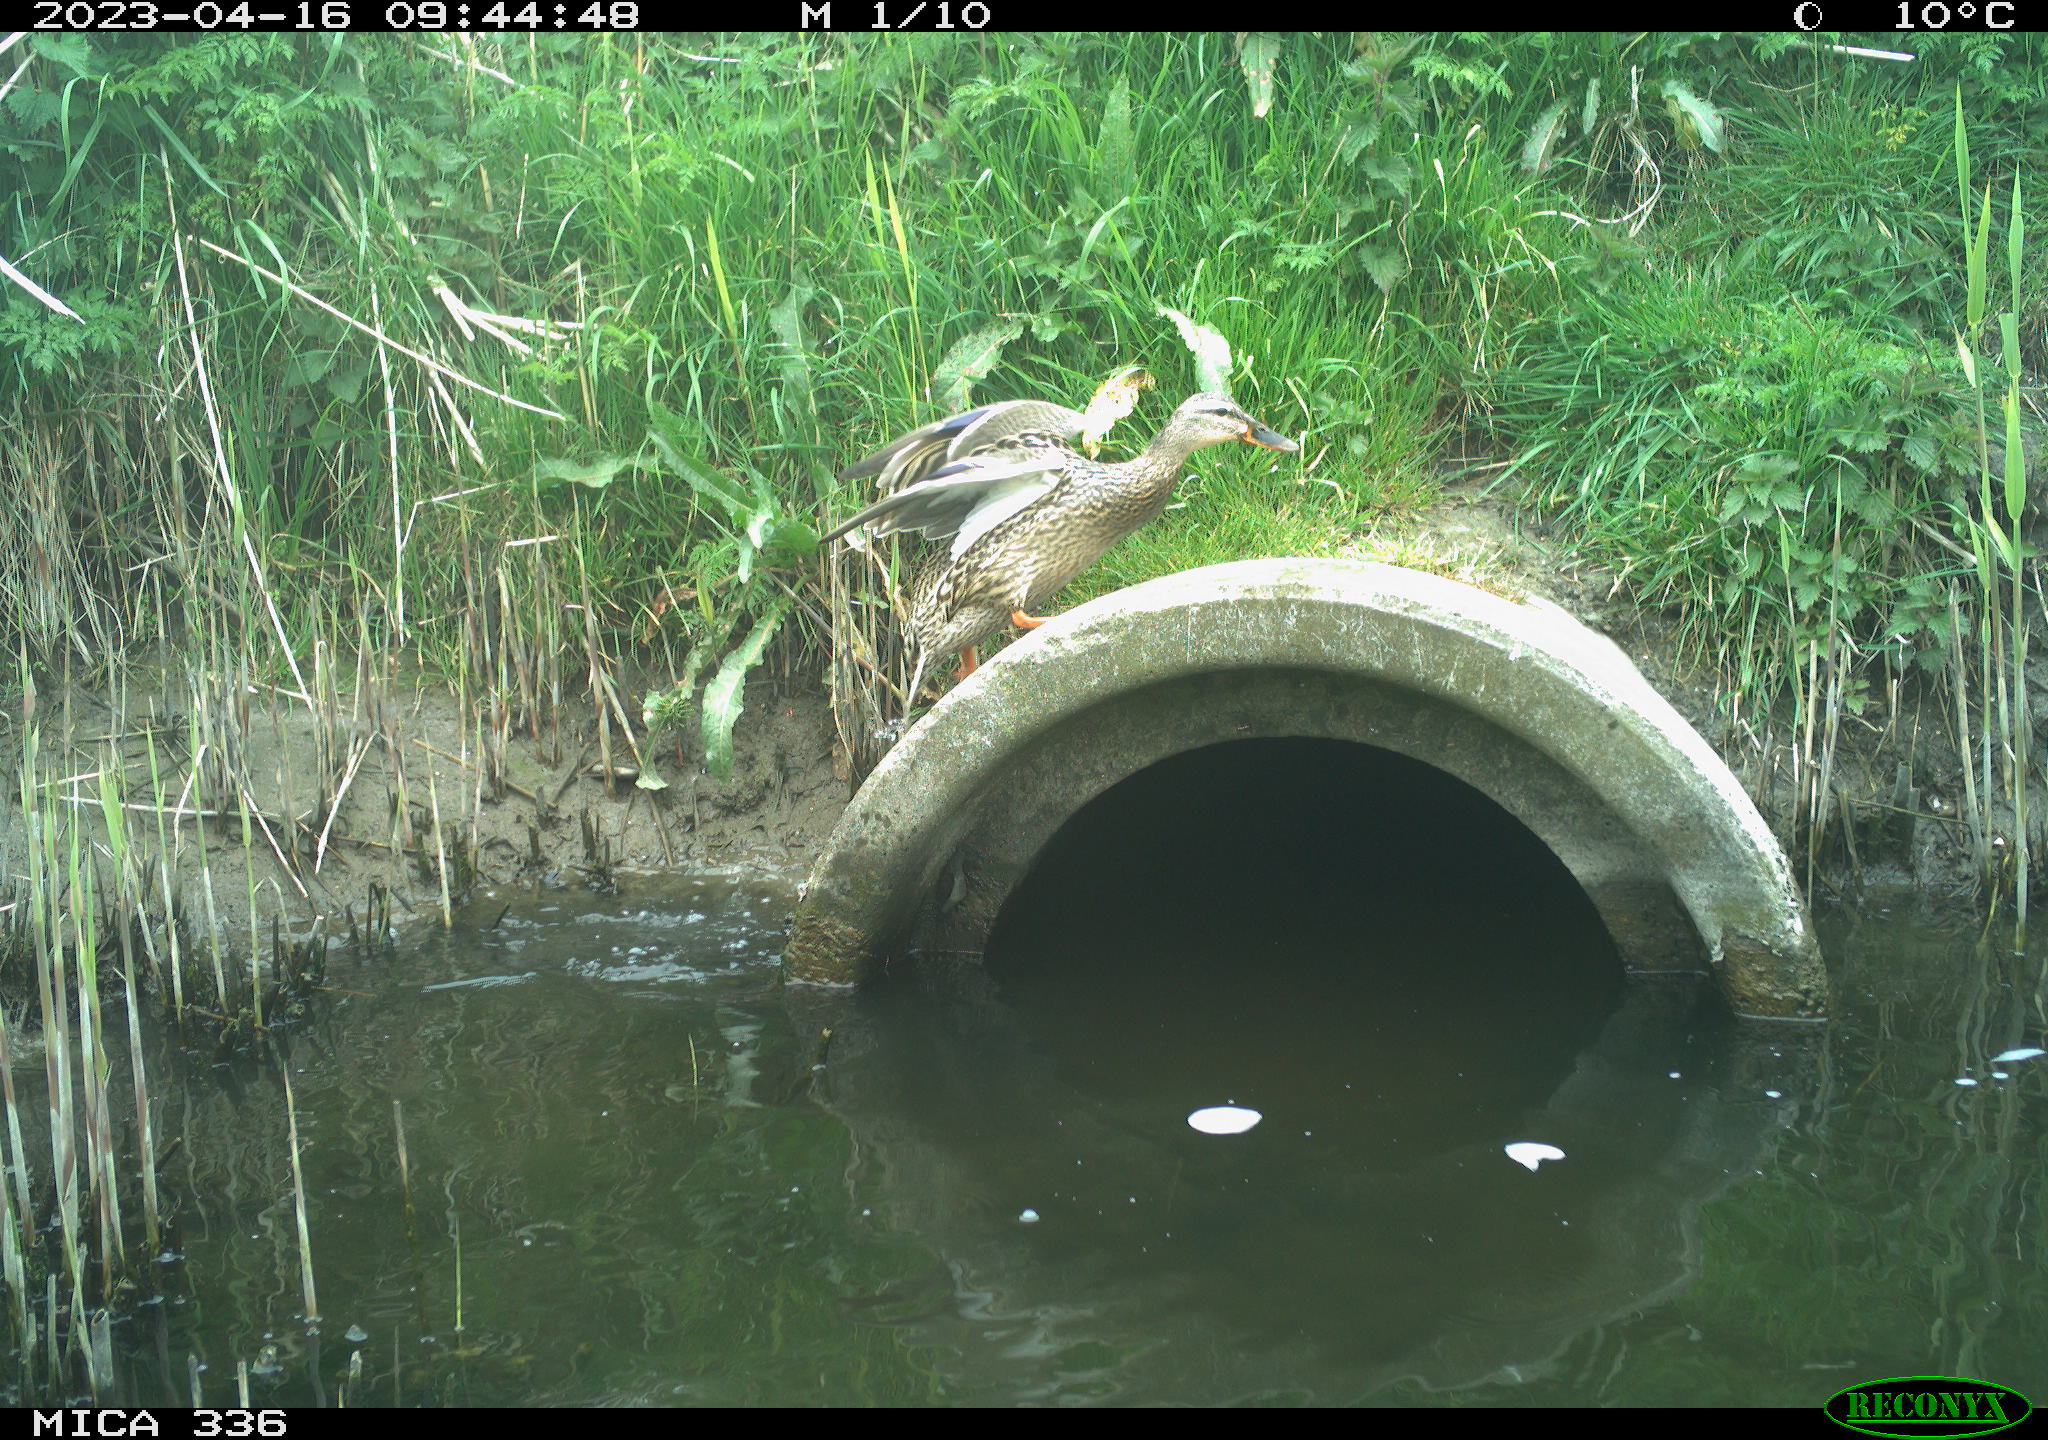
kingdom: Animalia
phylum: Chordata
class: Aves
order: Anseriformes
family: Anatidae
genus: Anas
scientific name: Anas
